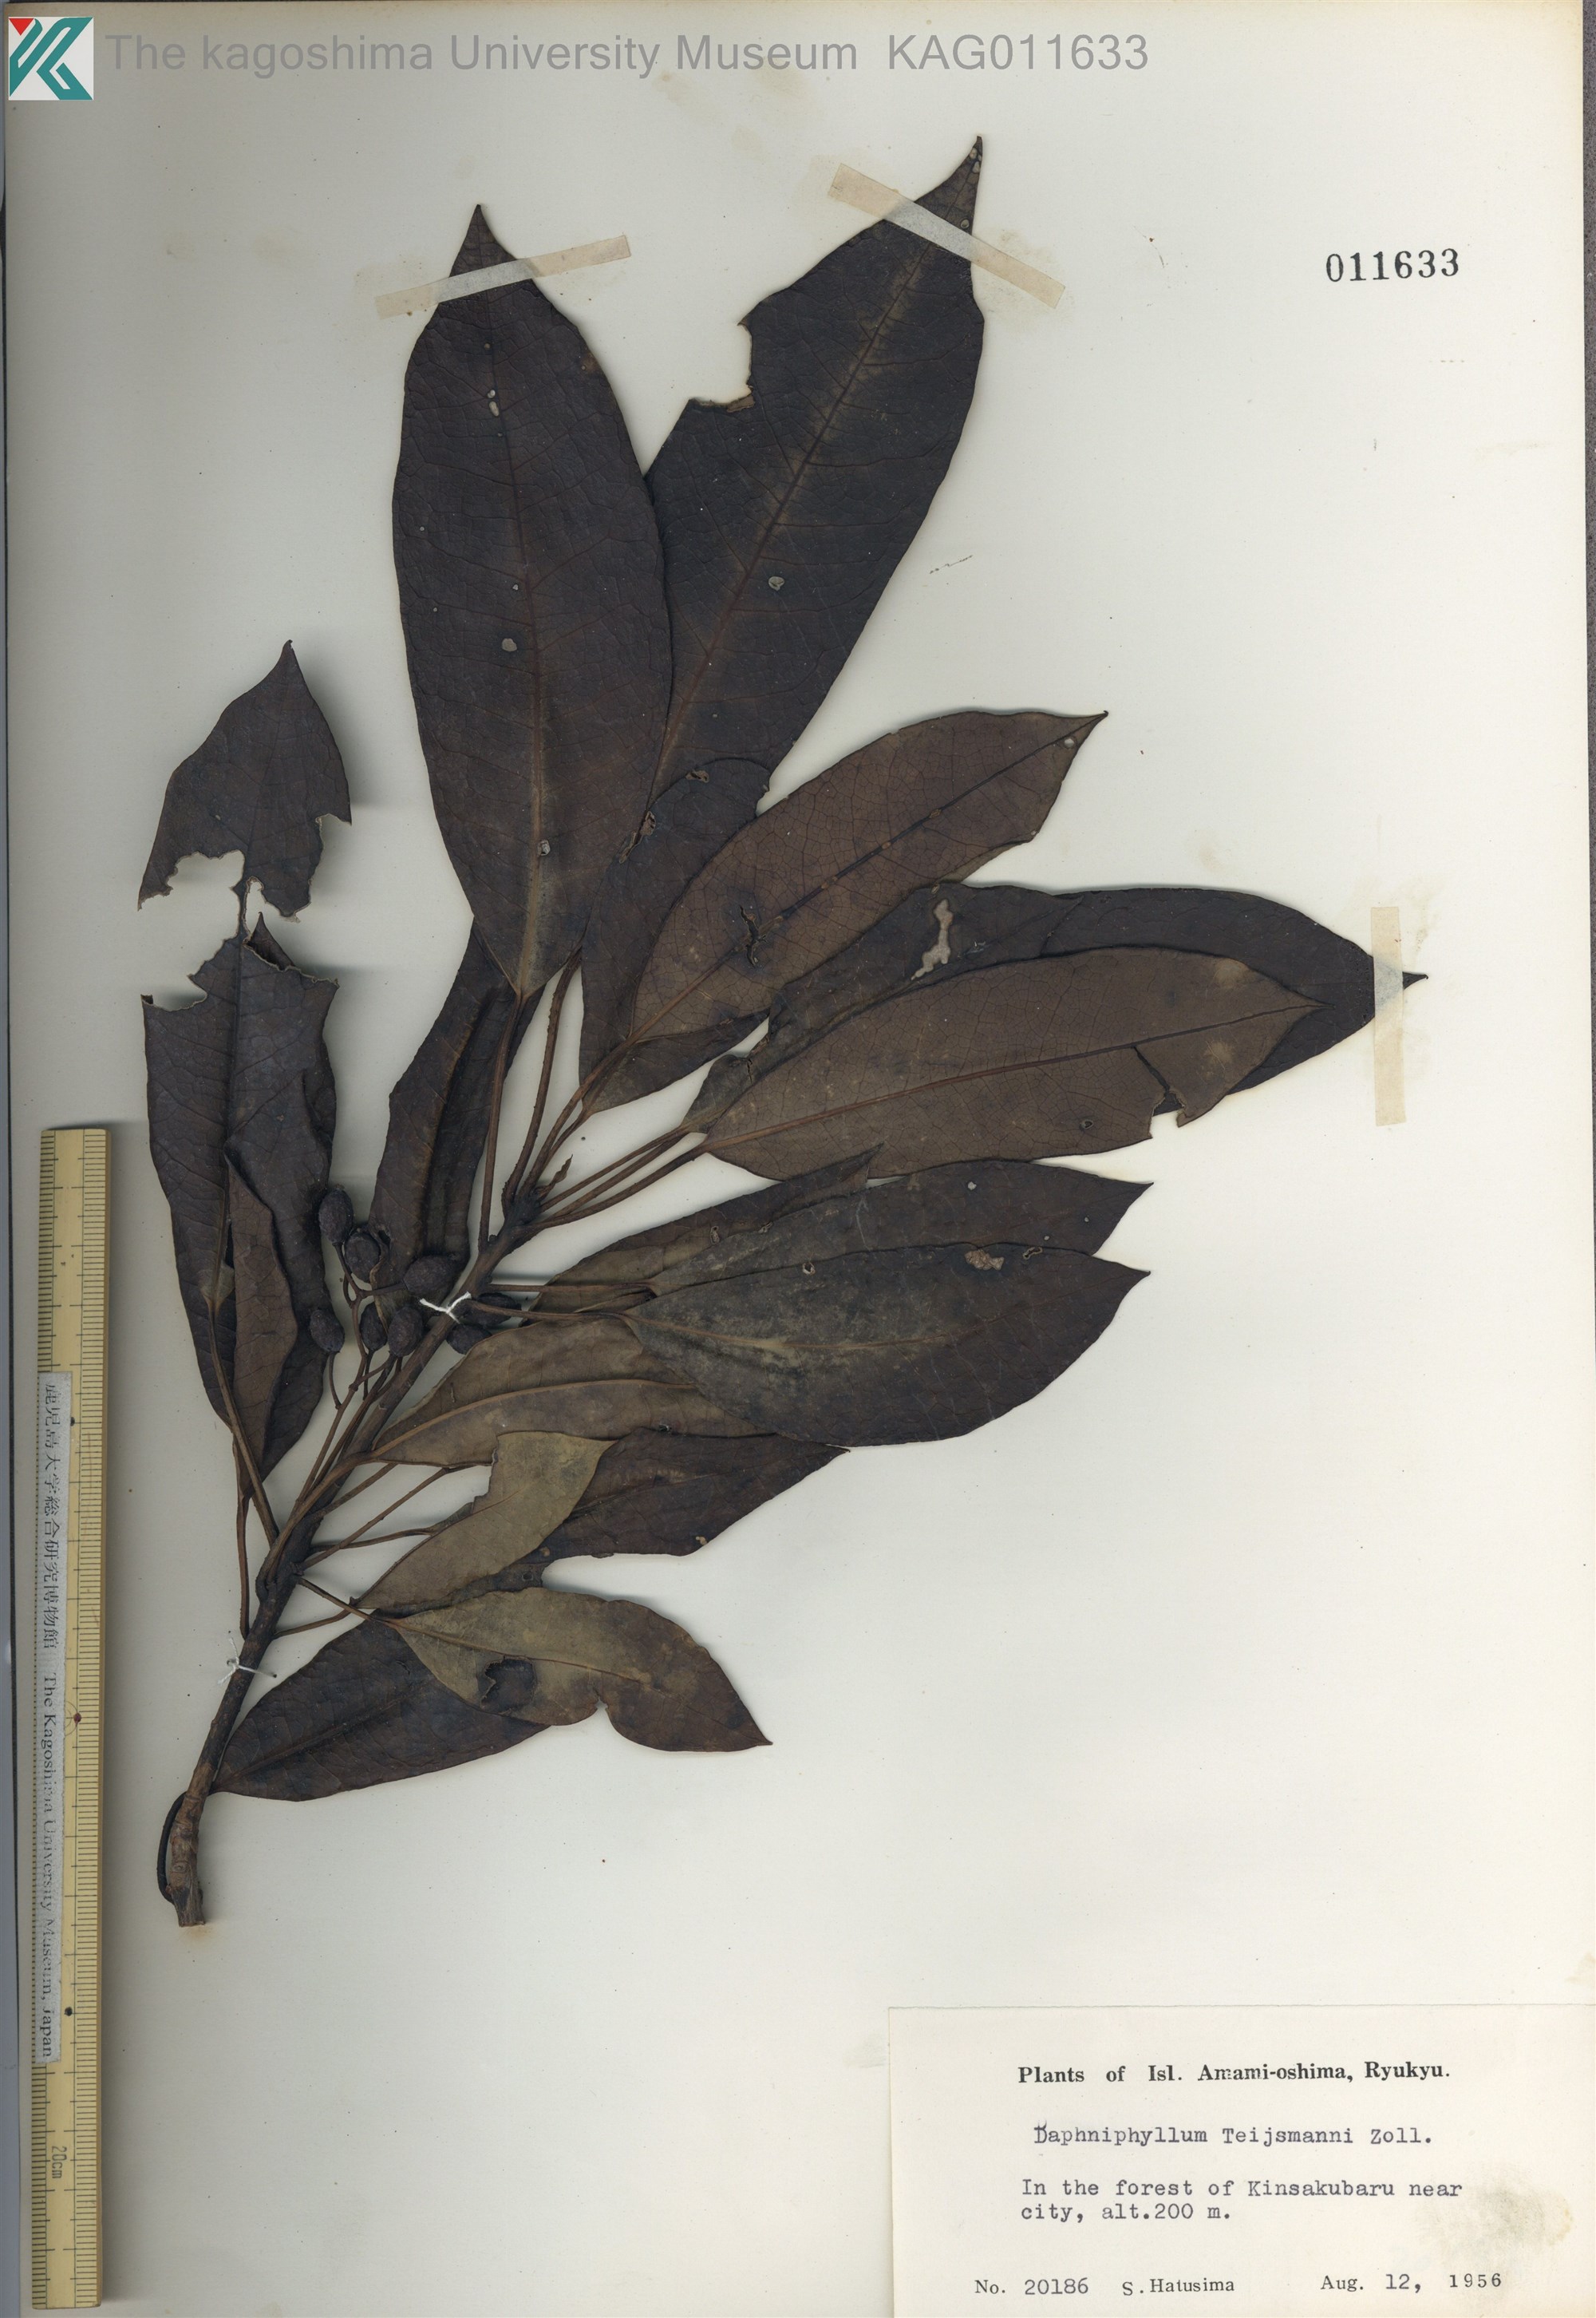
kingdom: Plantae
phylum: Tracheophyta
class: Magnoliopsida
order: Saxifragales
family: Daphniphyllaceae
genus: Daphniphyllum
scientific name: Daphniphyllum teijsmannii
